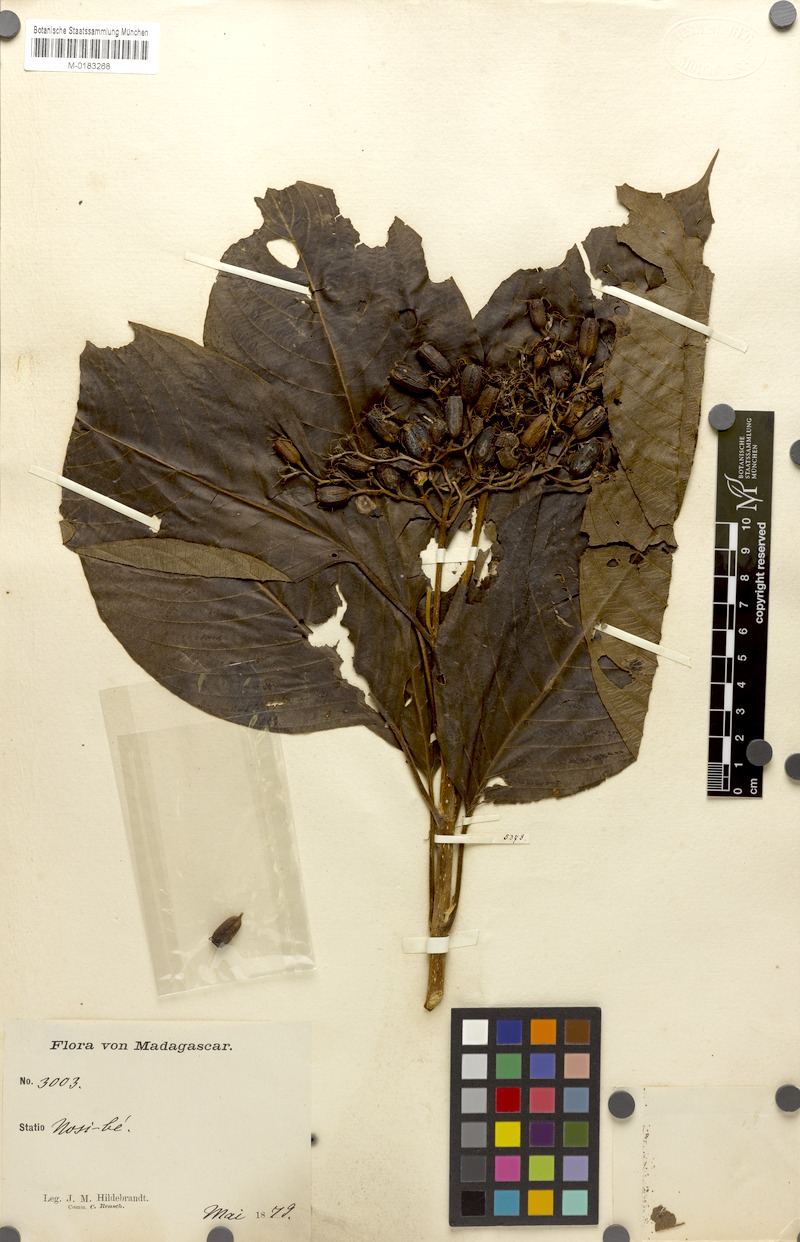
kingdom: Plantae
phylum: Tracheophyta
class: Magnoliopsida
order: Gentianales
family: Rubiaceae
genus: Bremeria
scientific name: Bremeria pervillei
